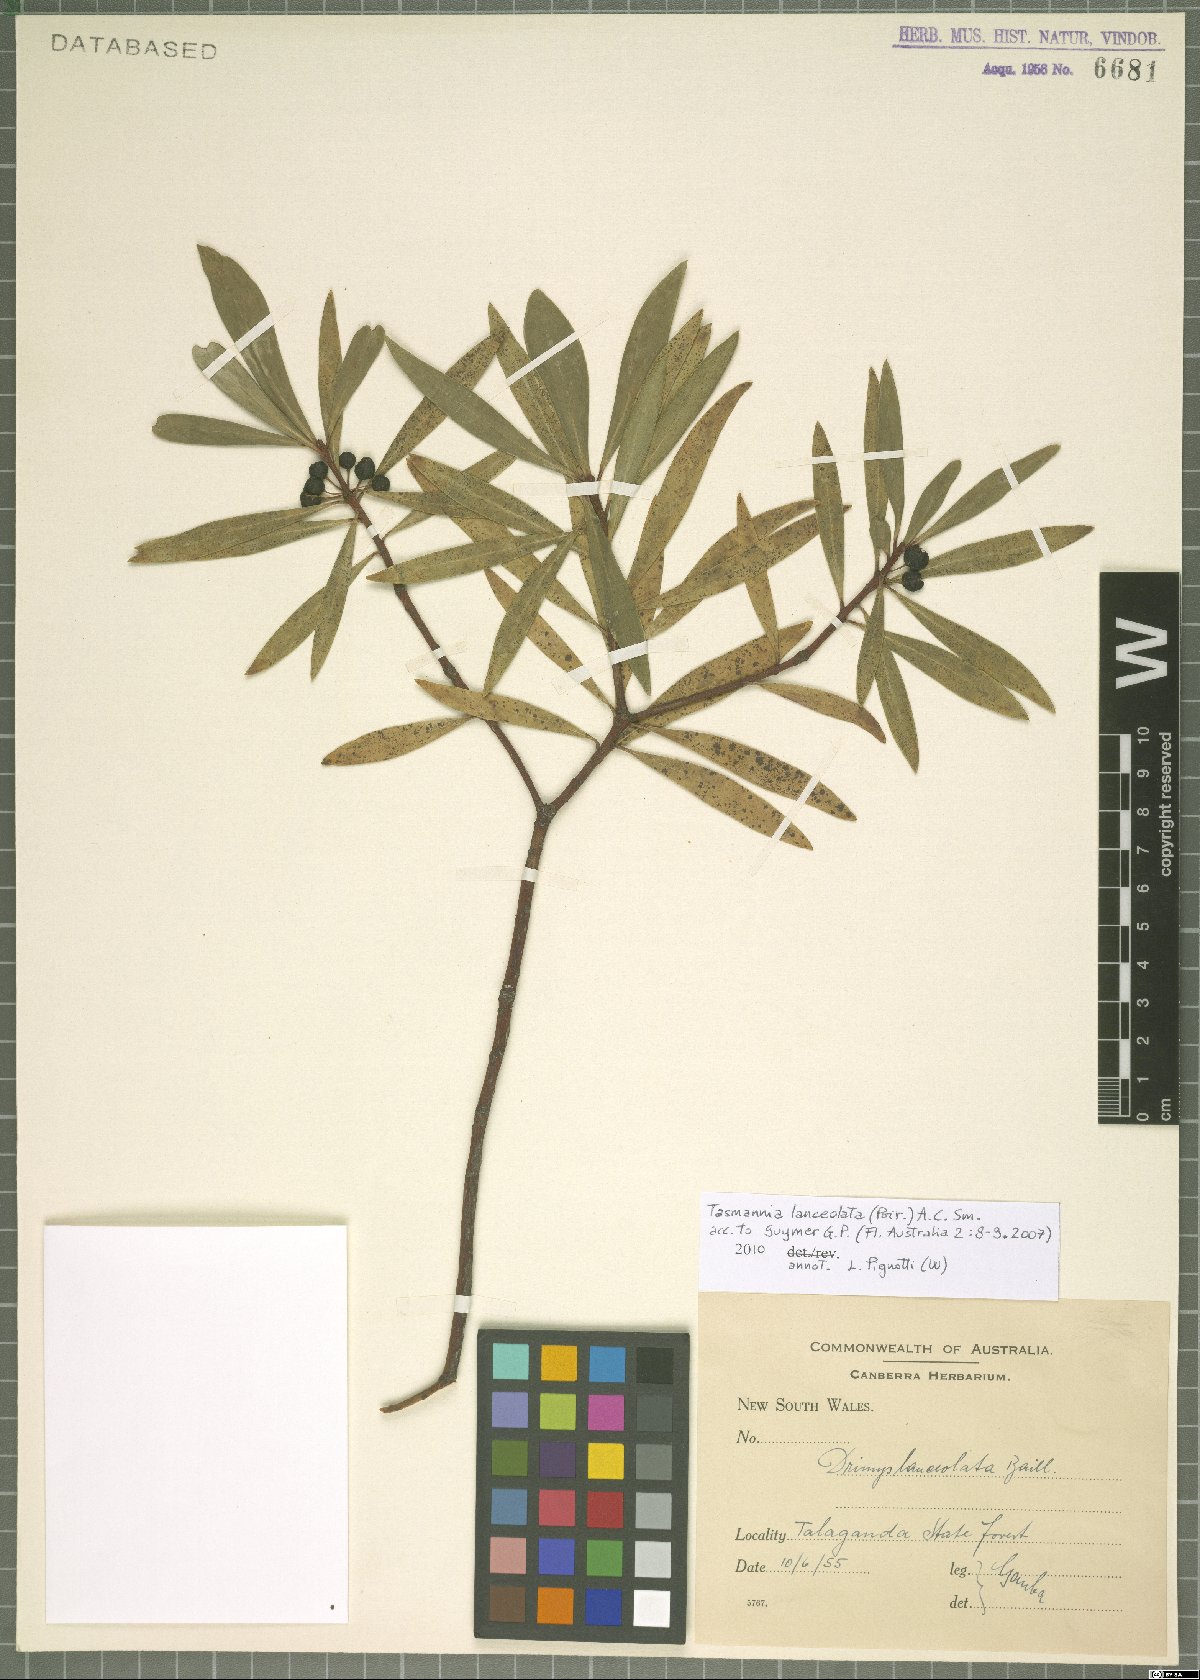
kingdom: Plantae
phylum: Tracheophyta
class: Magnoliopsida
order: Canellales
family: Winteraceae
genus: Drimys
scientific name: Drimys aromatica
